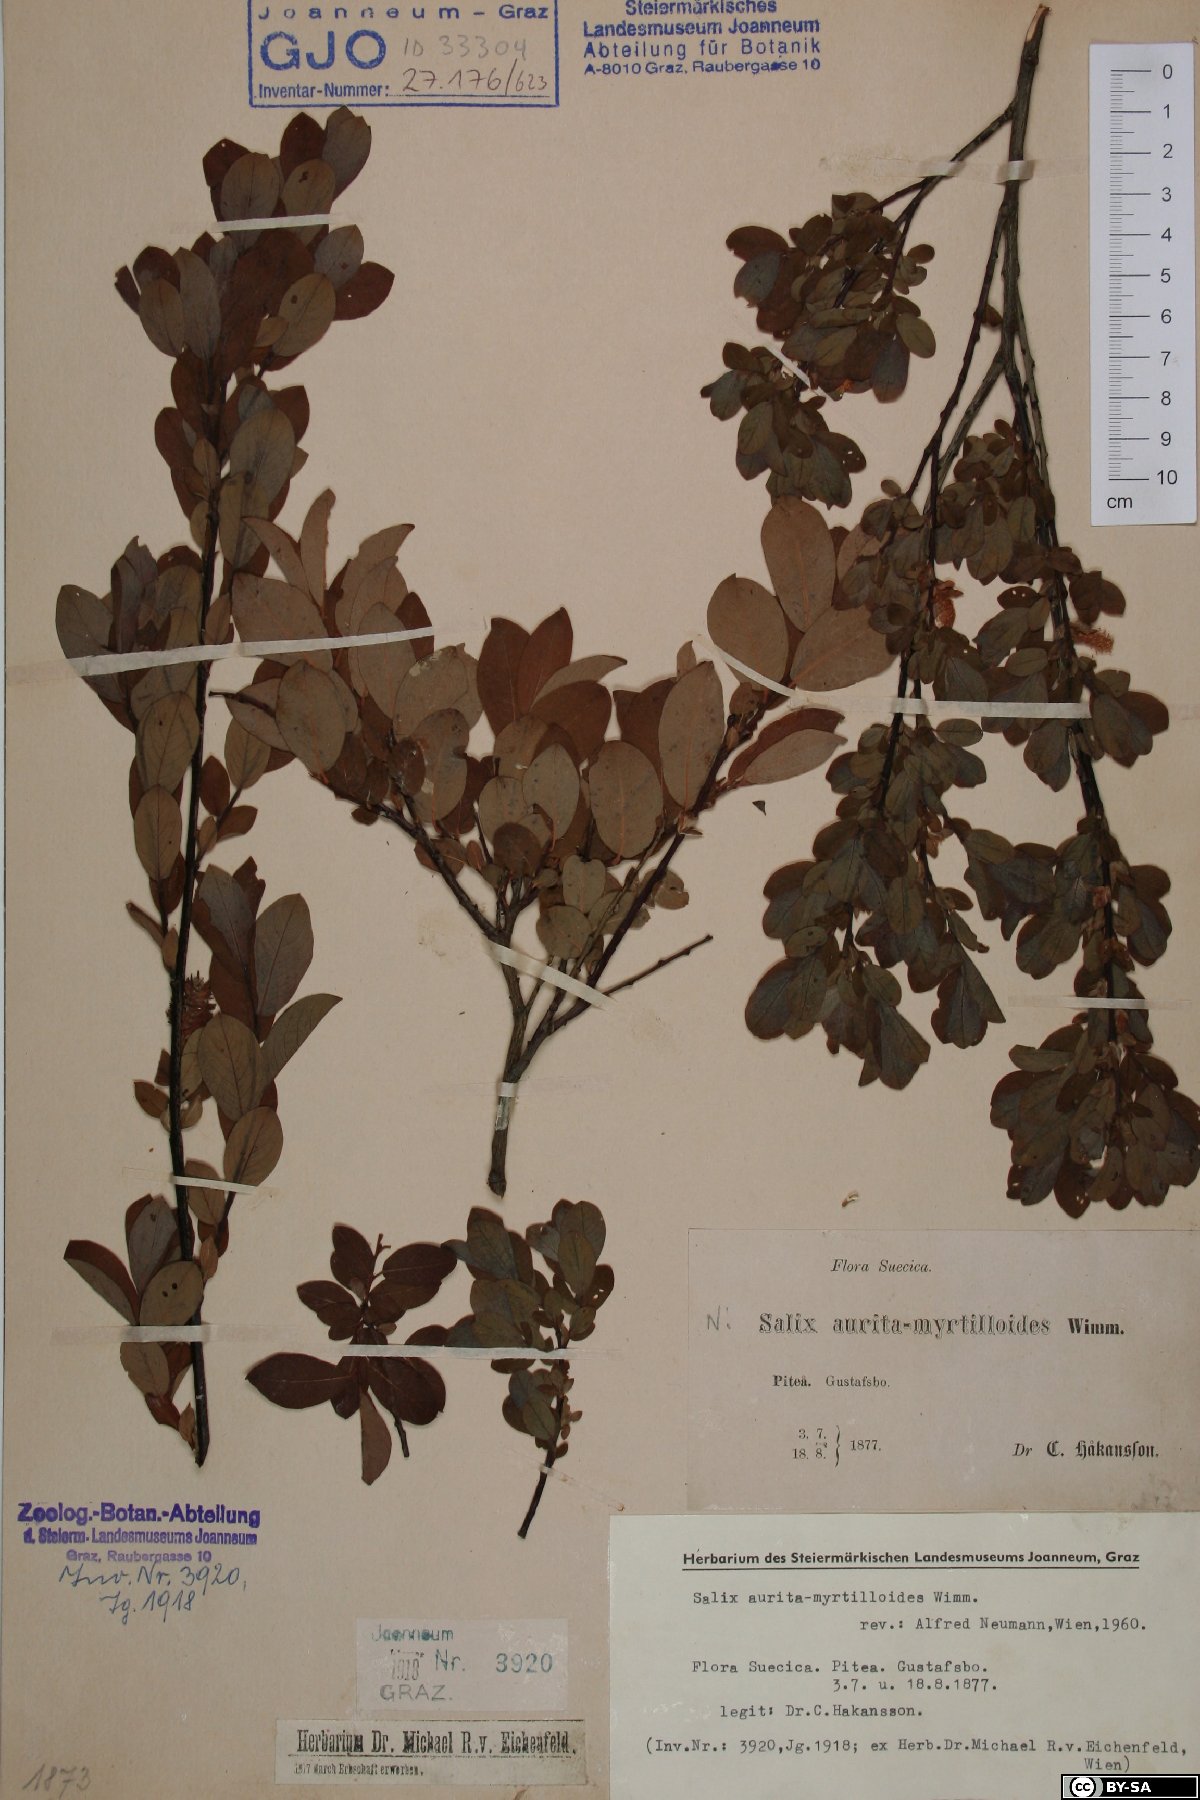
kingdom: Plantae
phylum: Tracheophyta
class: Magnoliopsida
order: Malpighiales
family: Salicaceae
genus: Salix
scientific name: Salix aurita
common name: Eared willow
